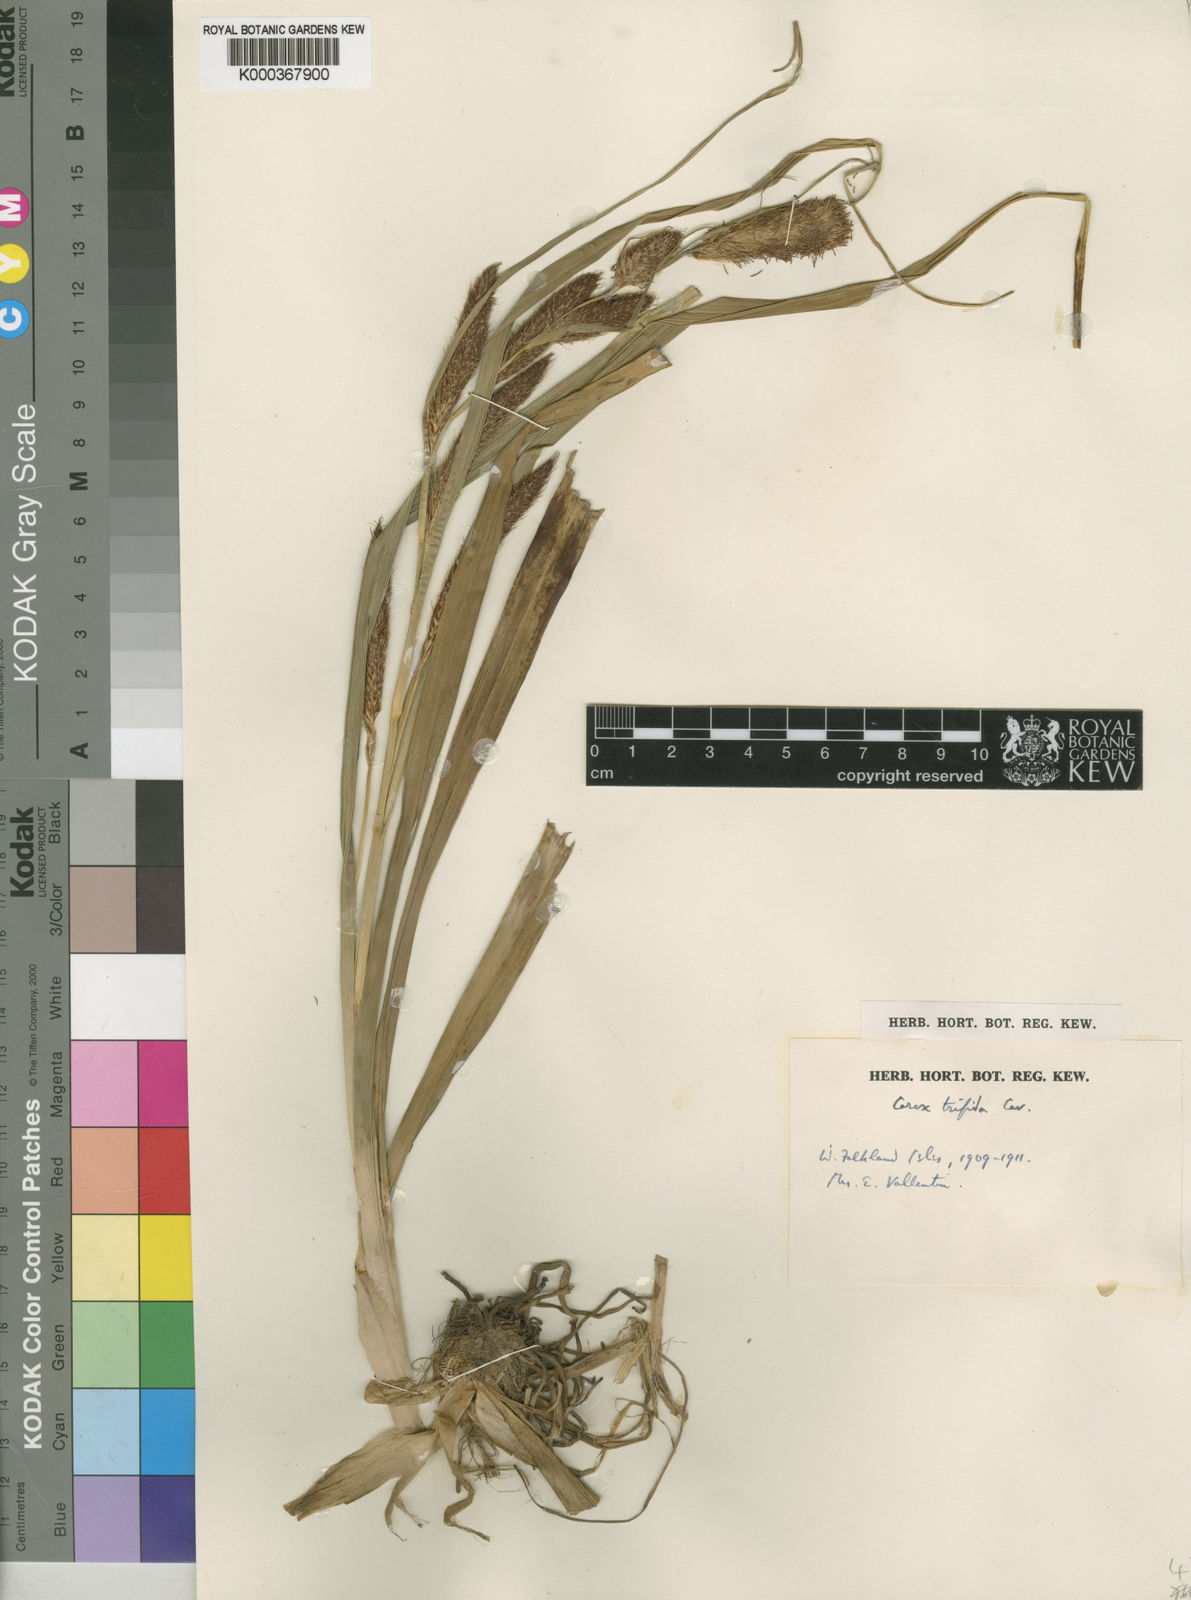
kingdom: Plantae
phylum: Tracheophyta
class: Liliopsida
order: Poales
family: Cyperaceae
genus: Carex
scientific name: Carex trifida
